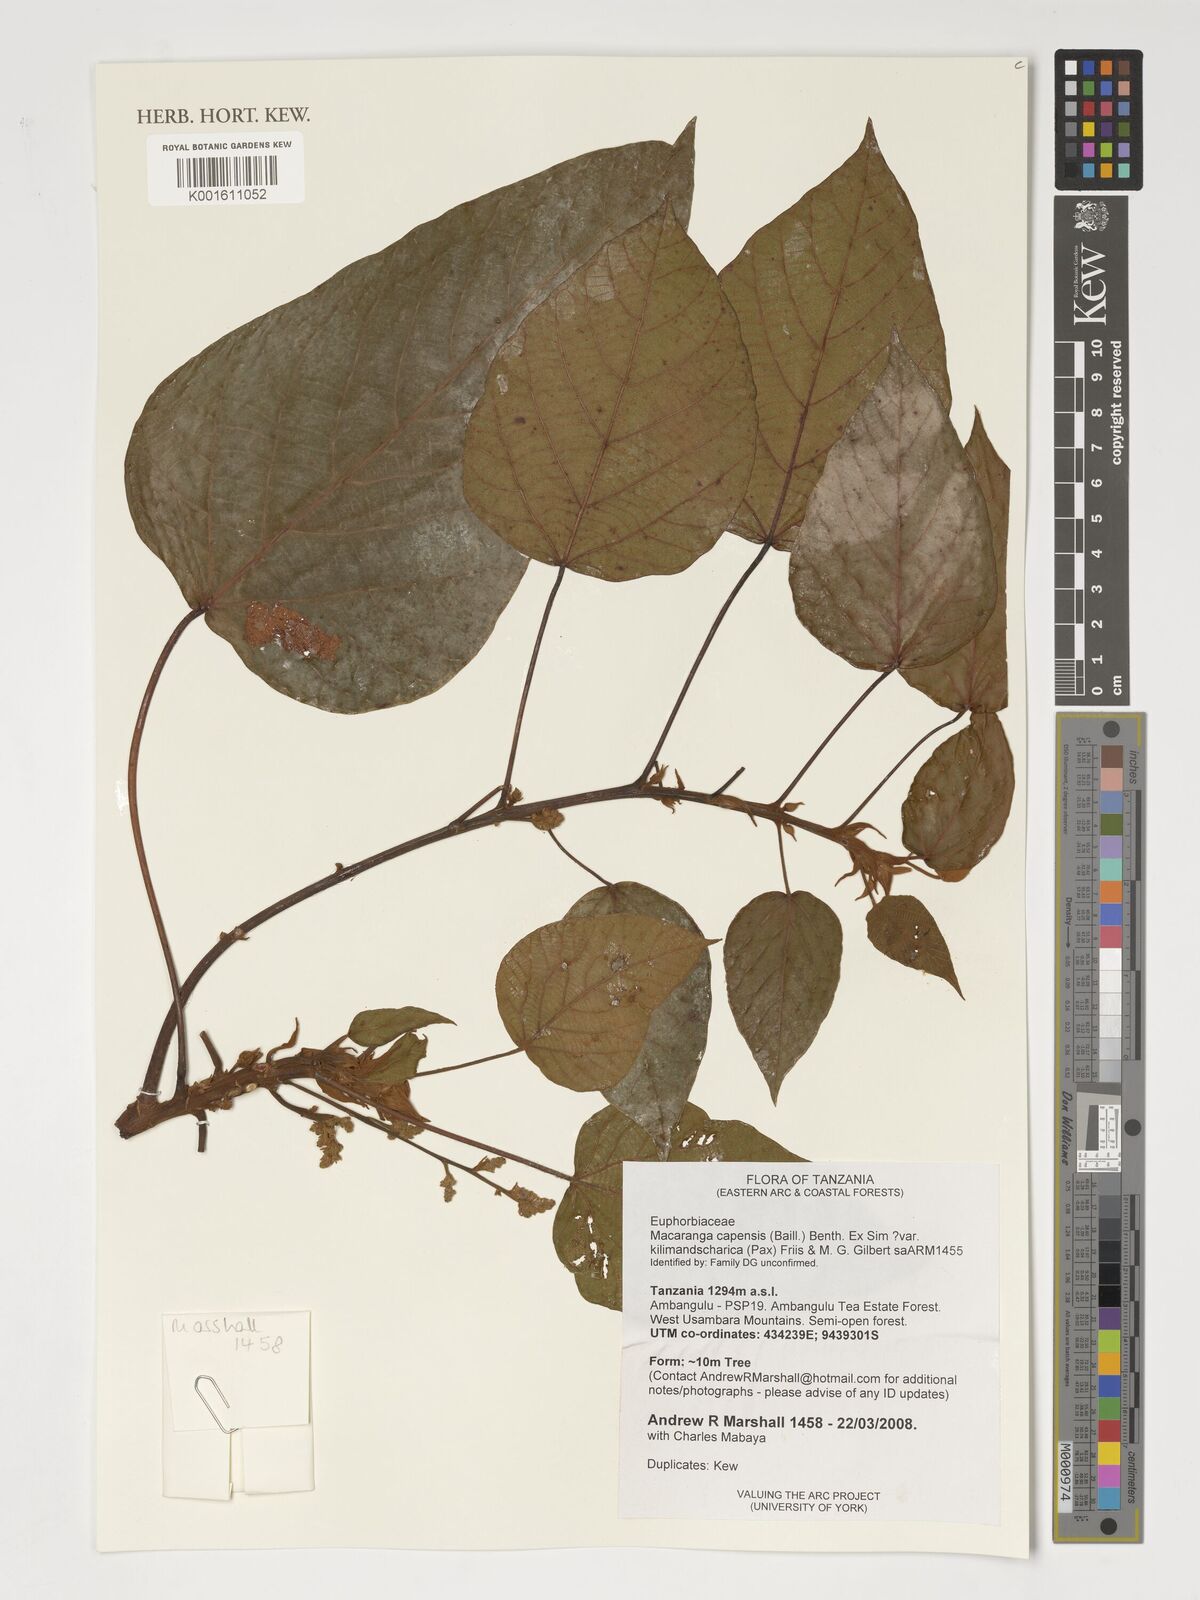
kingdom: Plantae
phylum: Tracheophyta
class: Magnoliopsida
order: Malpighiales
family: Euphorbiaceae
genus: Macaranga
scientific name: Macaranga kilimandscharica
